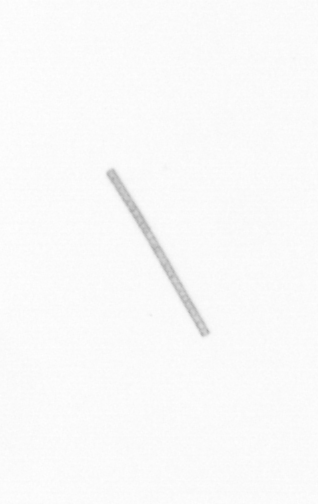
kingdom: Chromista
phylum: Ochrophyta
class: Bacillariophyceae
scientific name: Bacillariophyceae
